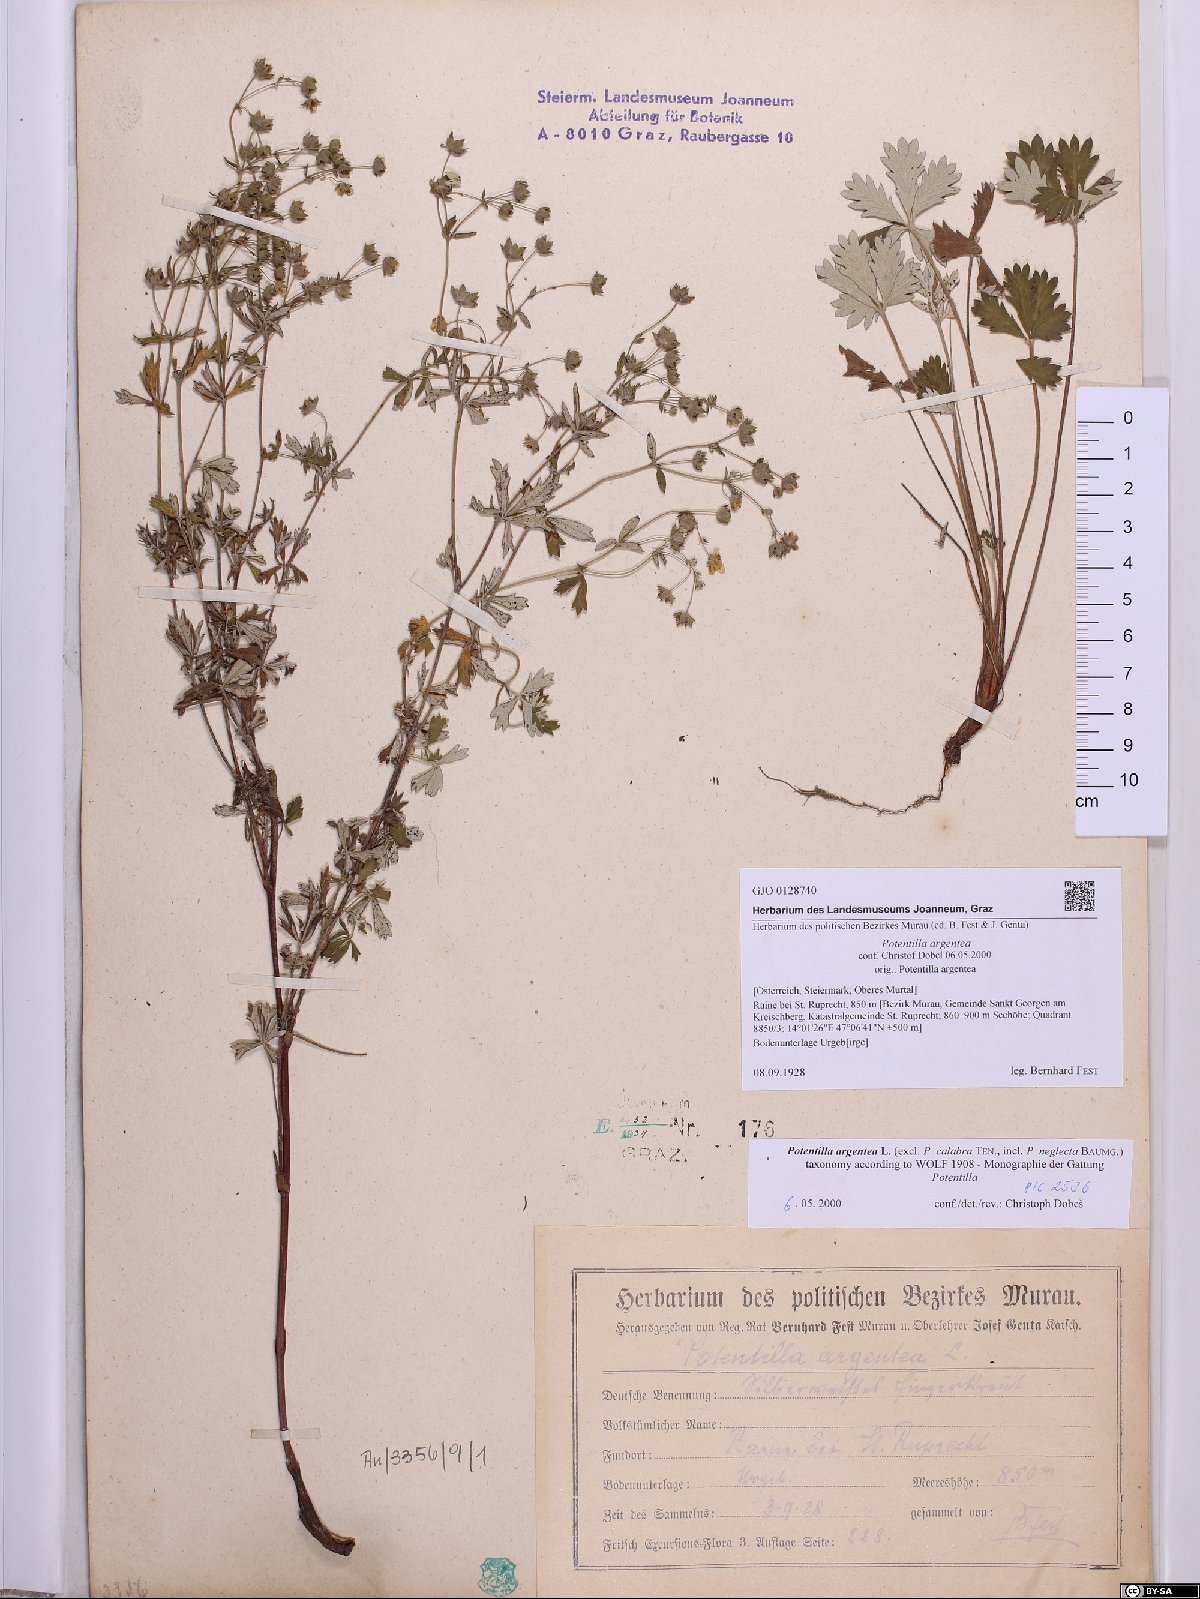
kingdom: Plantae
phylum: Tracheophyta
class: Magnoliopsida
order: Rosales
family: Rosaceae
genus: Potentilla
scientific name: Potentilla argentea
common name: Hoary cinquefoil
